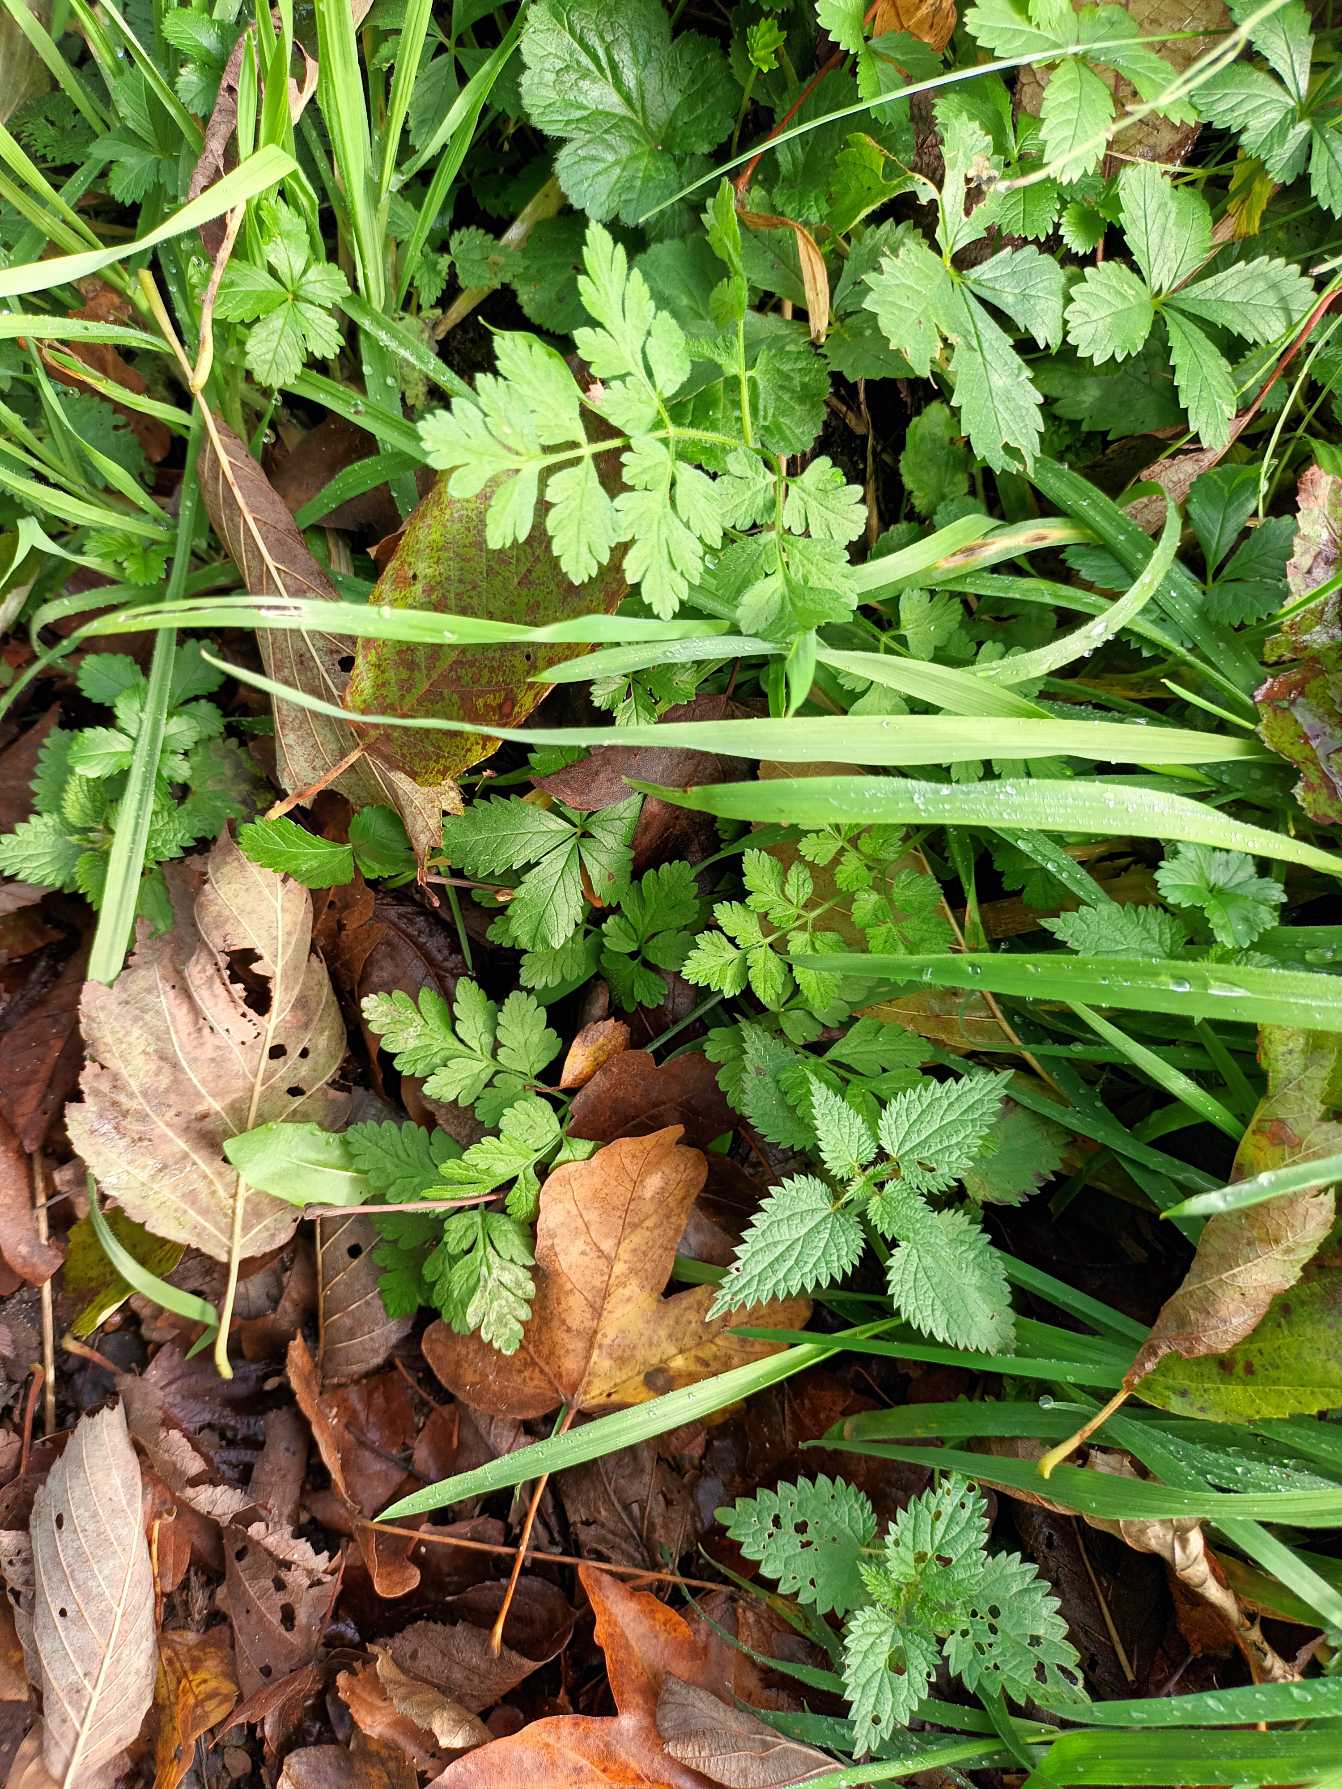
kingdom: Plantae
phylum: Tracheophyta
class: Magnoliopsida
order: Apiales
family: Apiaceae
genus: Chaerophyllum
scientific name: Chaerophyllum temulum
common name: Almindelig hulsvøb
